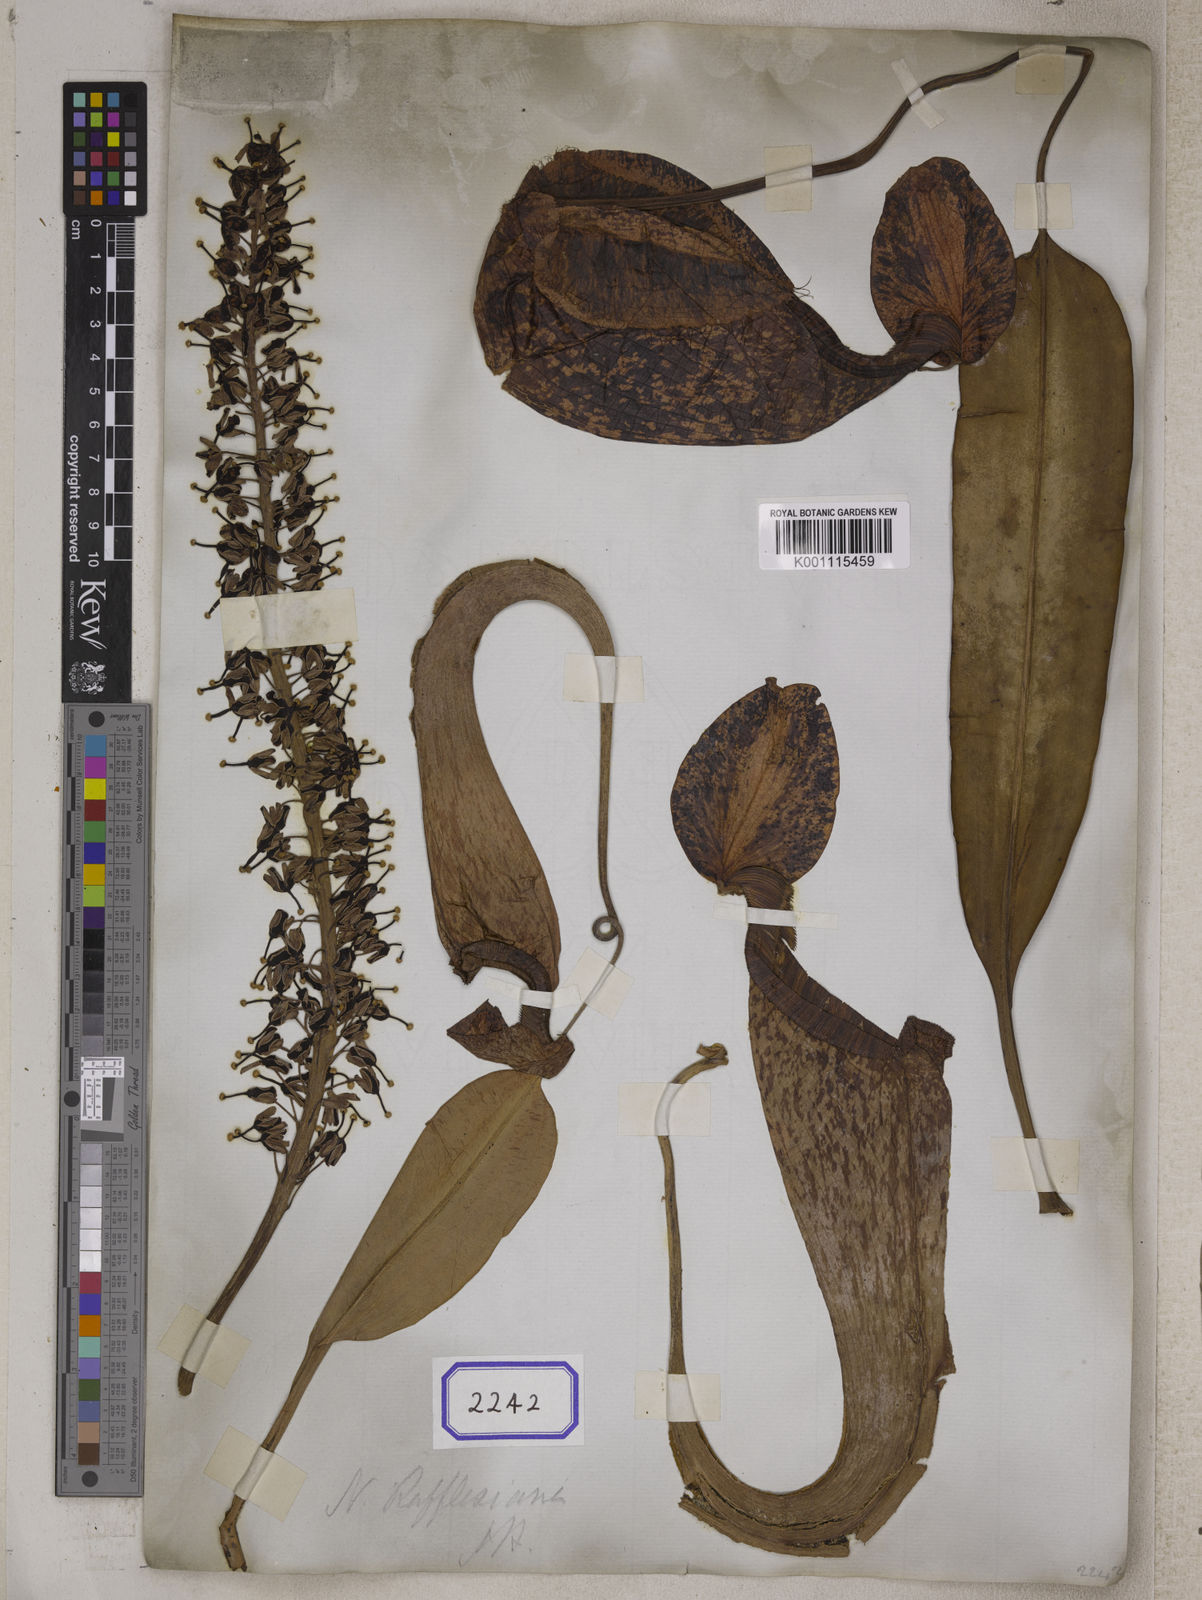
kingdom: Plantae
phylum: Tracheophyta
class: Magnoliopsida
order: Caryophyllales
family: Nepenthaceae
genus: Nepenthes
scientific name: Nepenthes rafflesiana
